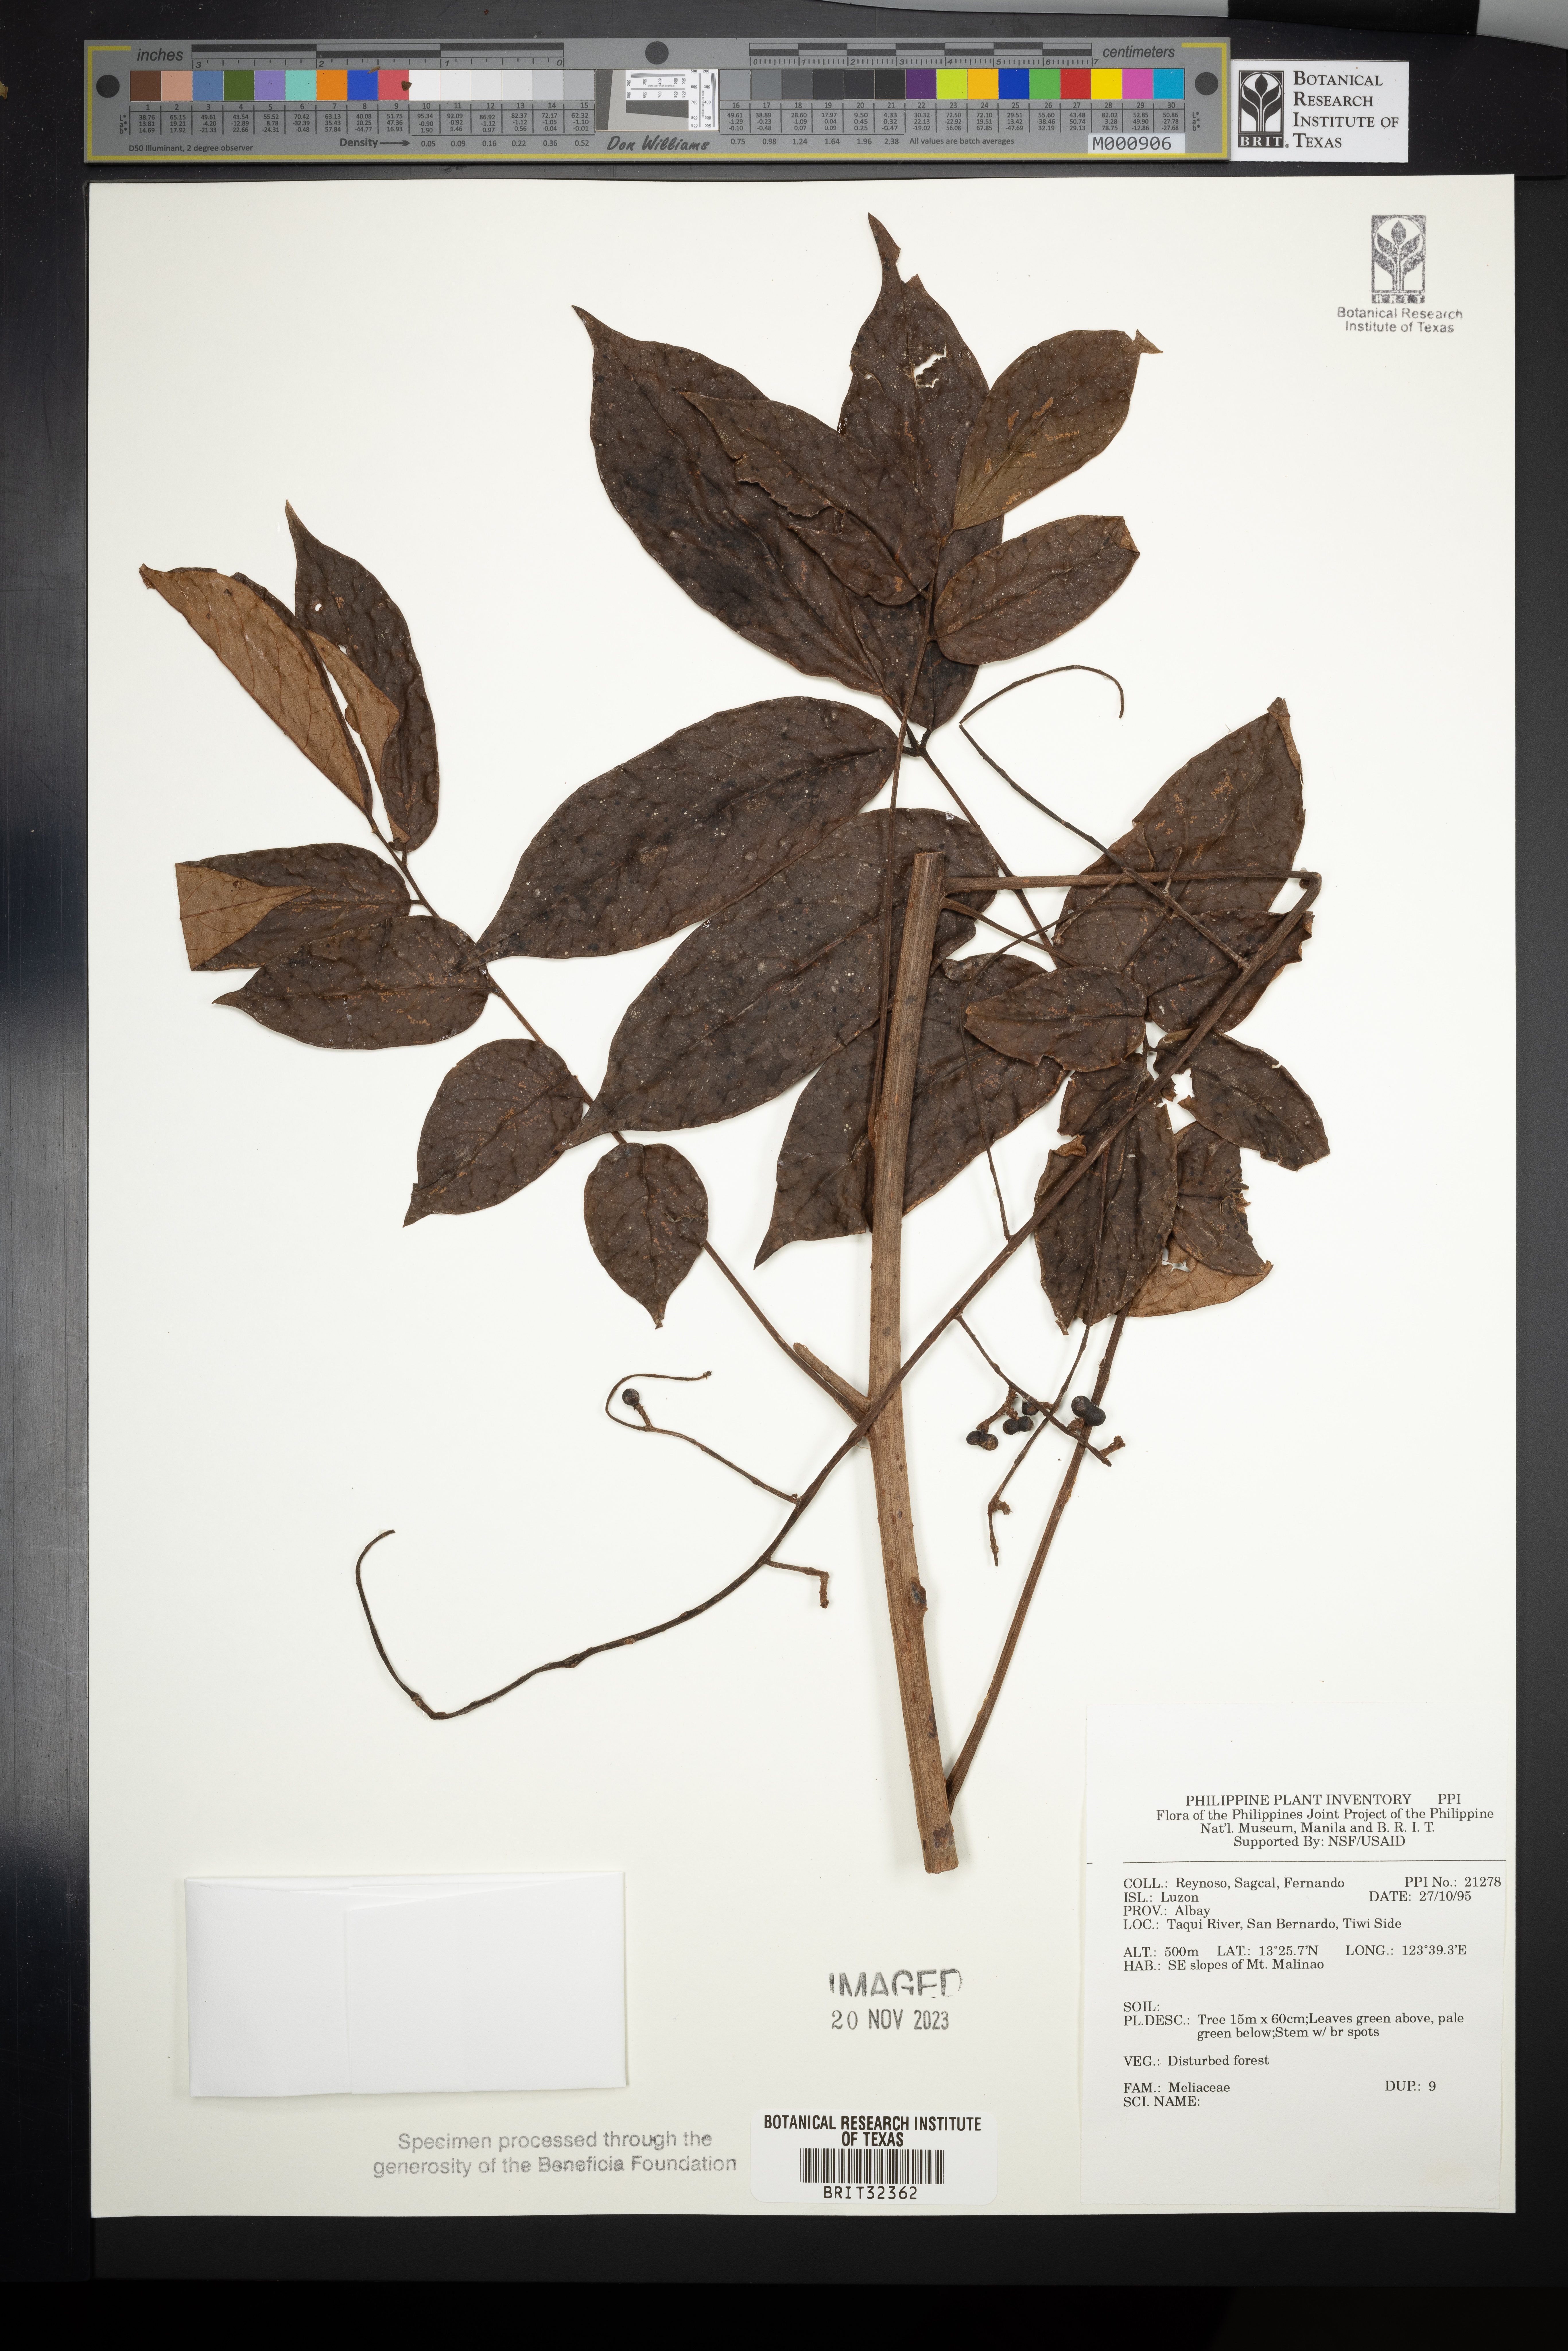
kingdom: Plantae
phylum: Tracheophyta
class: Magnoliopsida
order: Sapindales
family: Meliaceae
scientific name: Meliaceae
